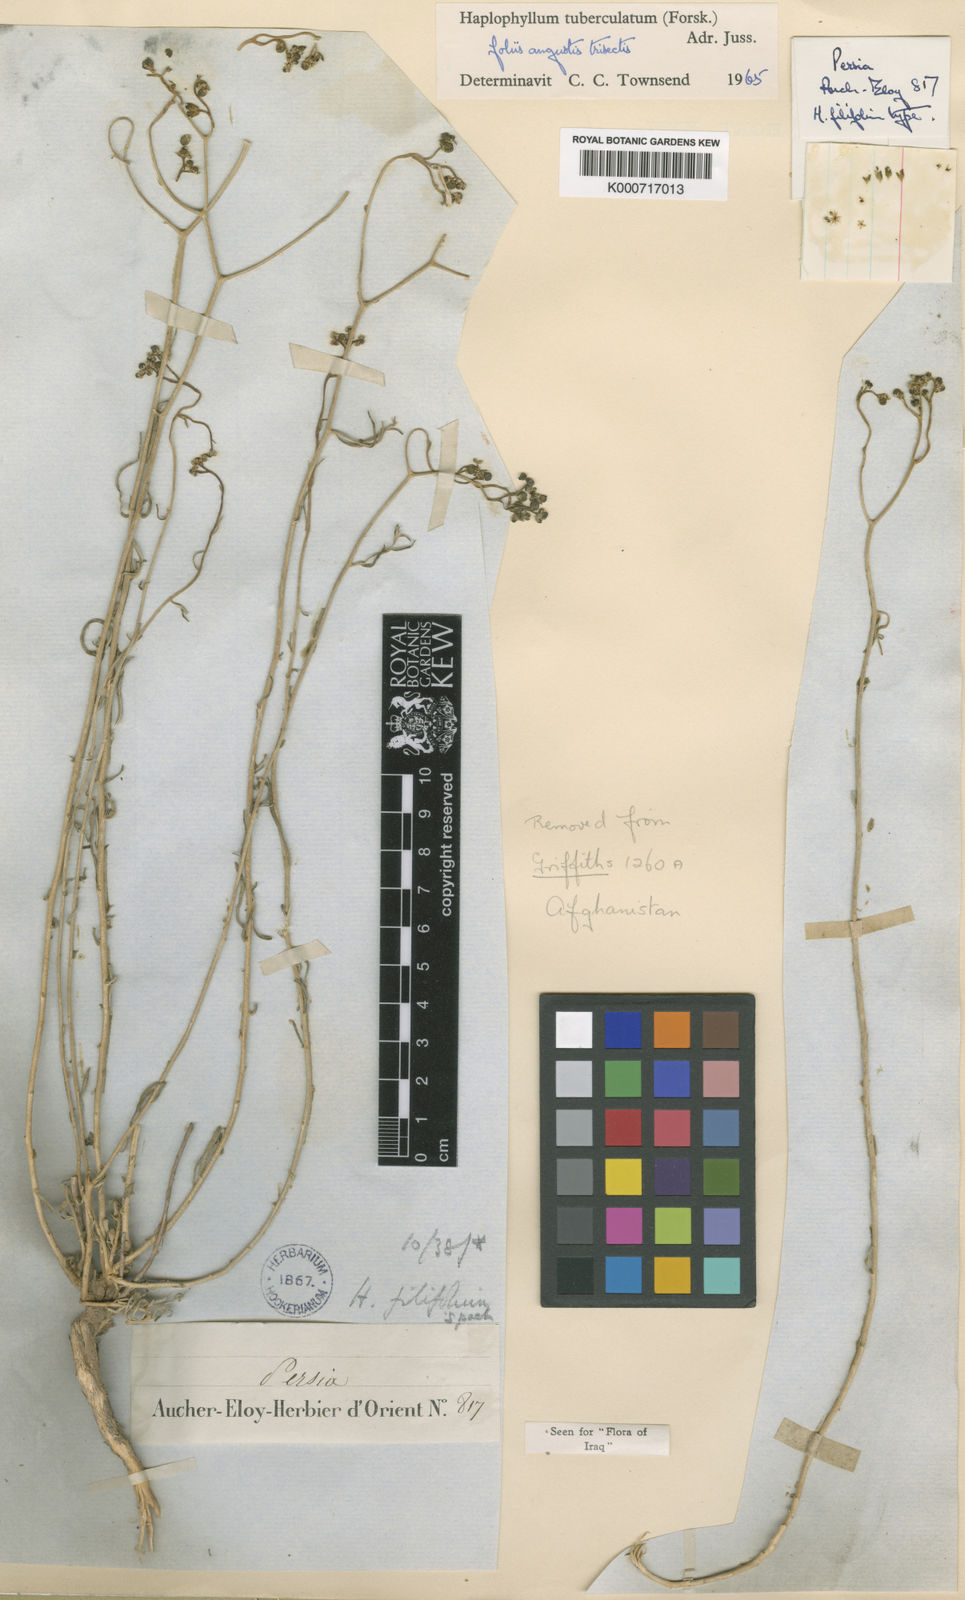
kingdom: Plantae
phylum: Tracheophyta
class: Magnoliopsida
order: Sapindales
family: Rutaceae
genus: Haplophyllum
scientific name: Haplophyllum tuberculatum
